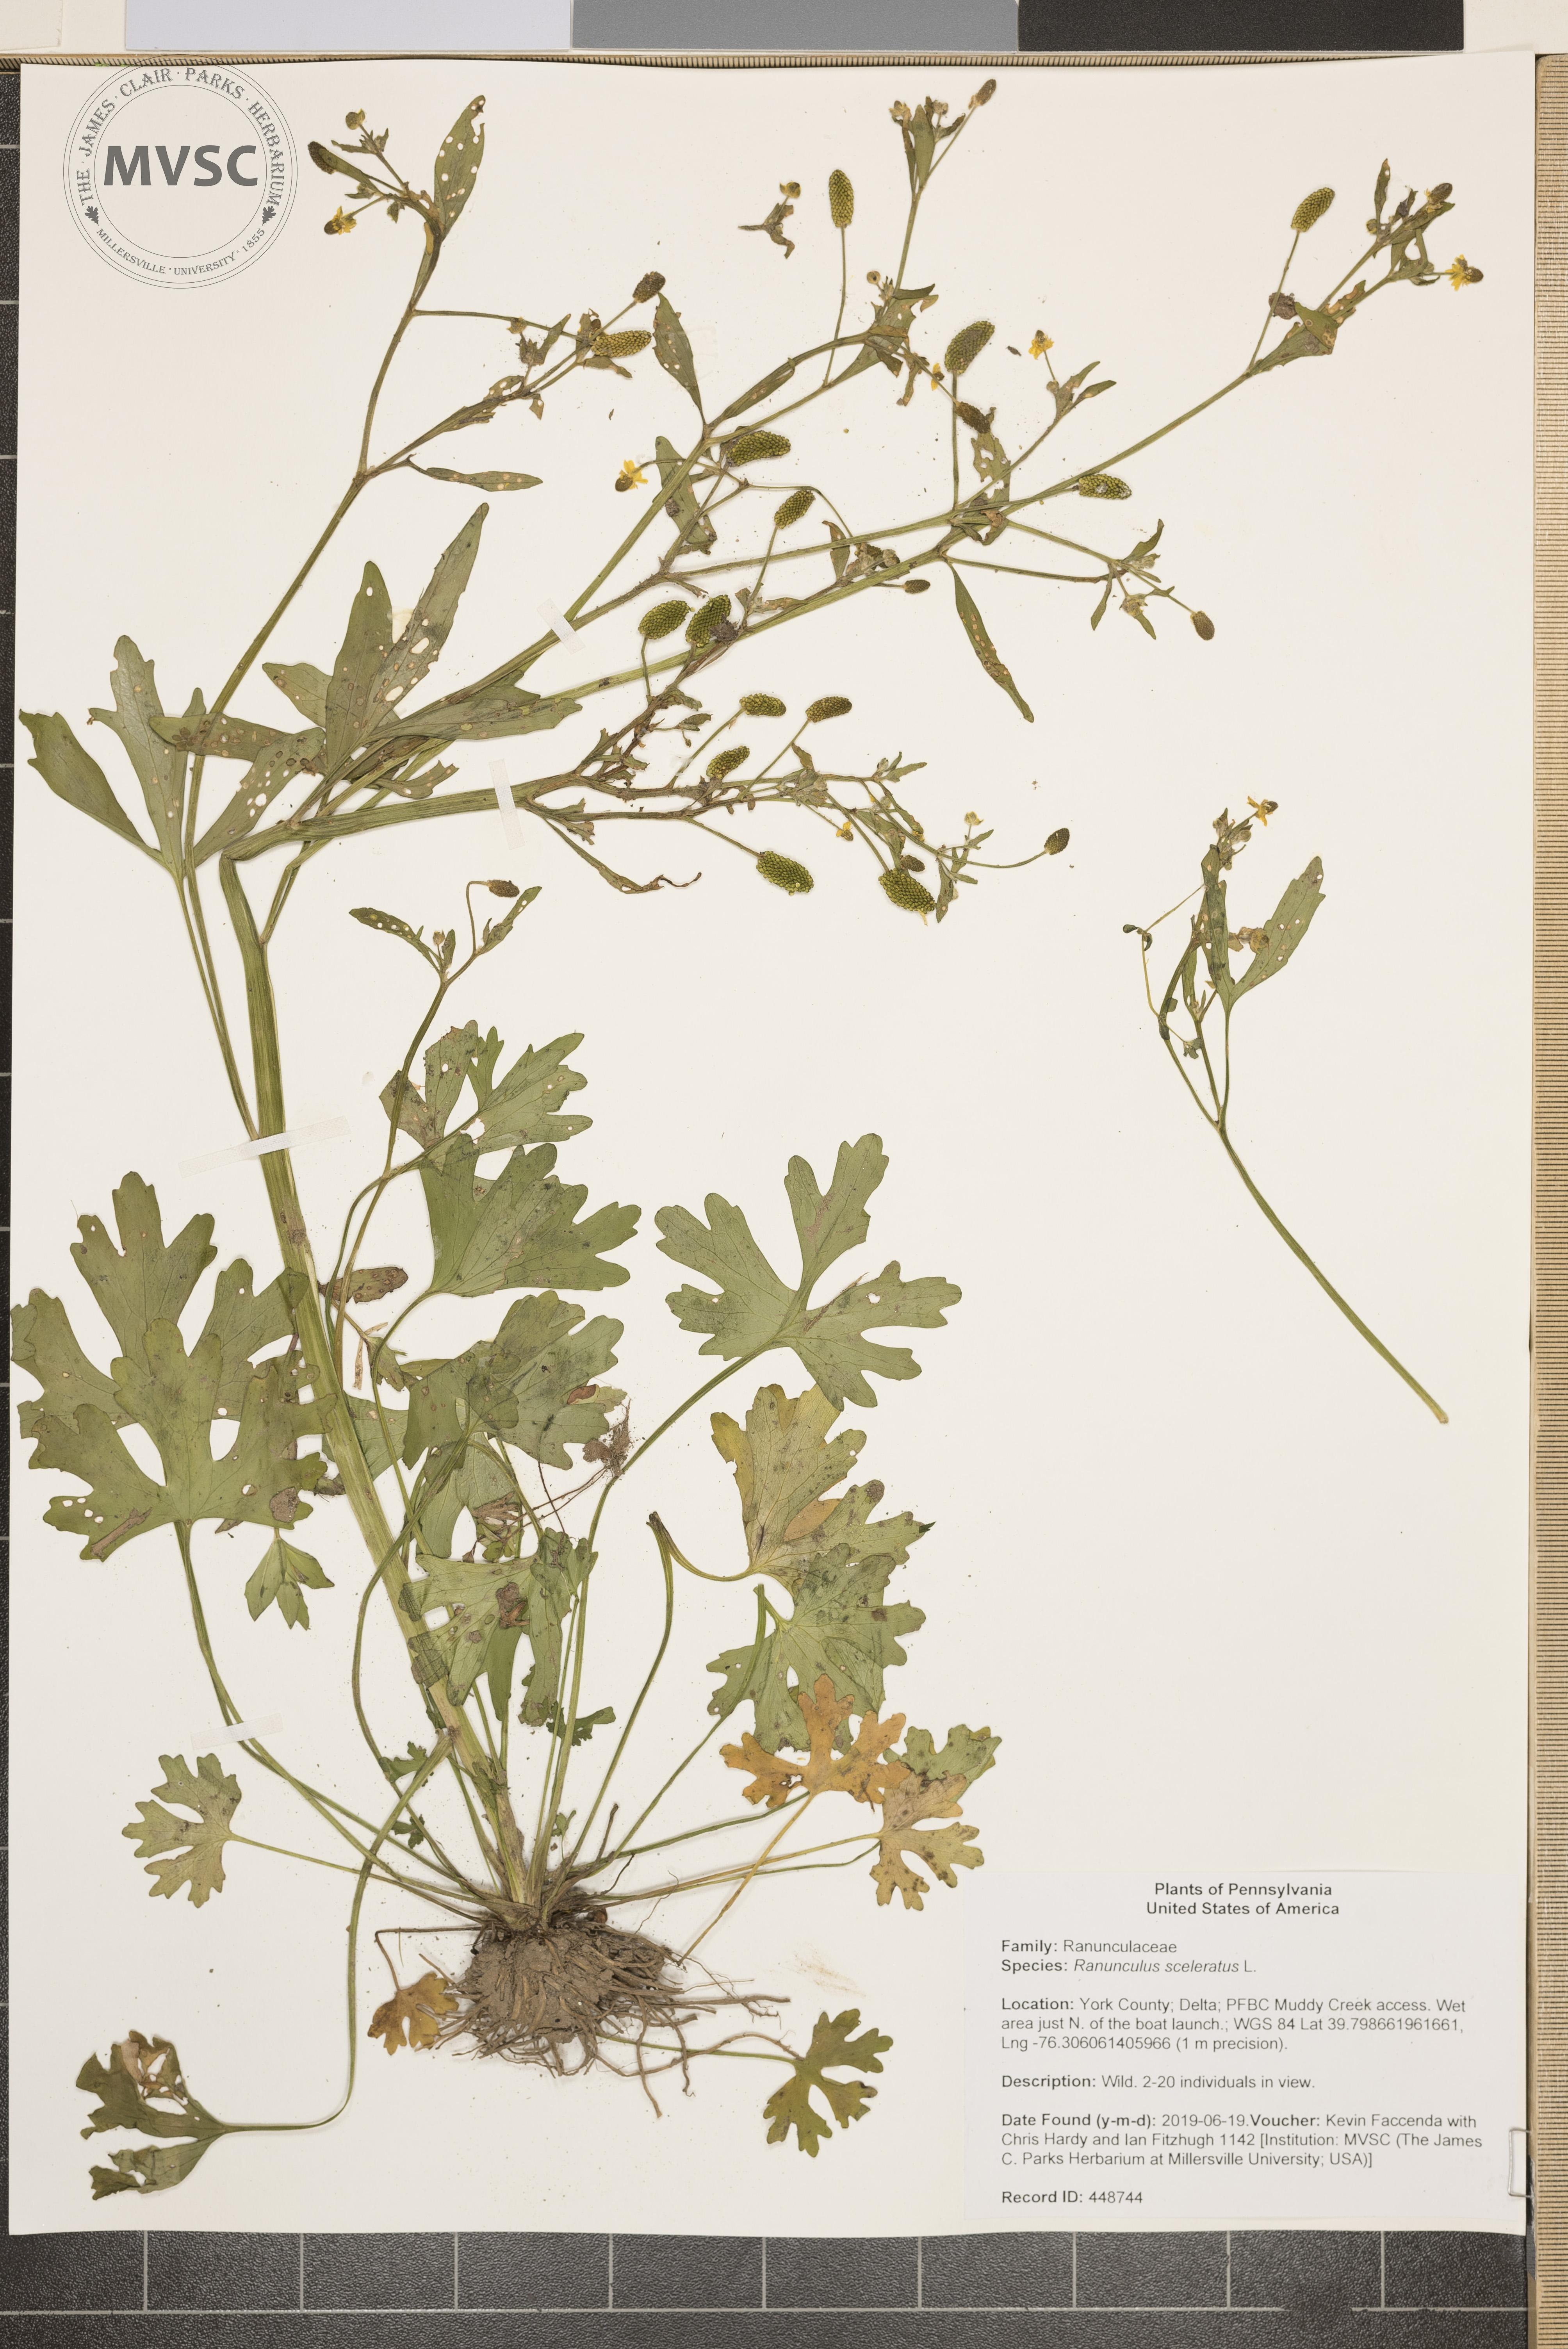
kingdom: Plantae
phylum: Tracheophyta
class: Magnoliopsida
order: Ranunculales
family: Ranunculaceae
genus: Ranunculus
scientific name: Ranunculus sceleratus
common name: Celery-leaved buttercup
